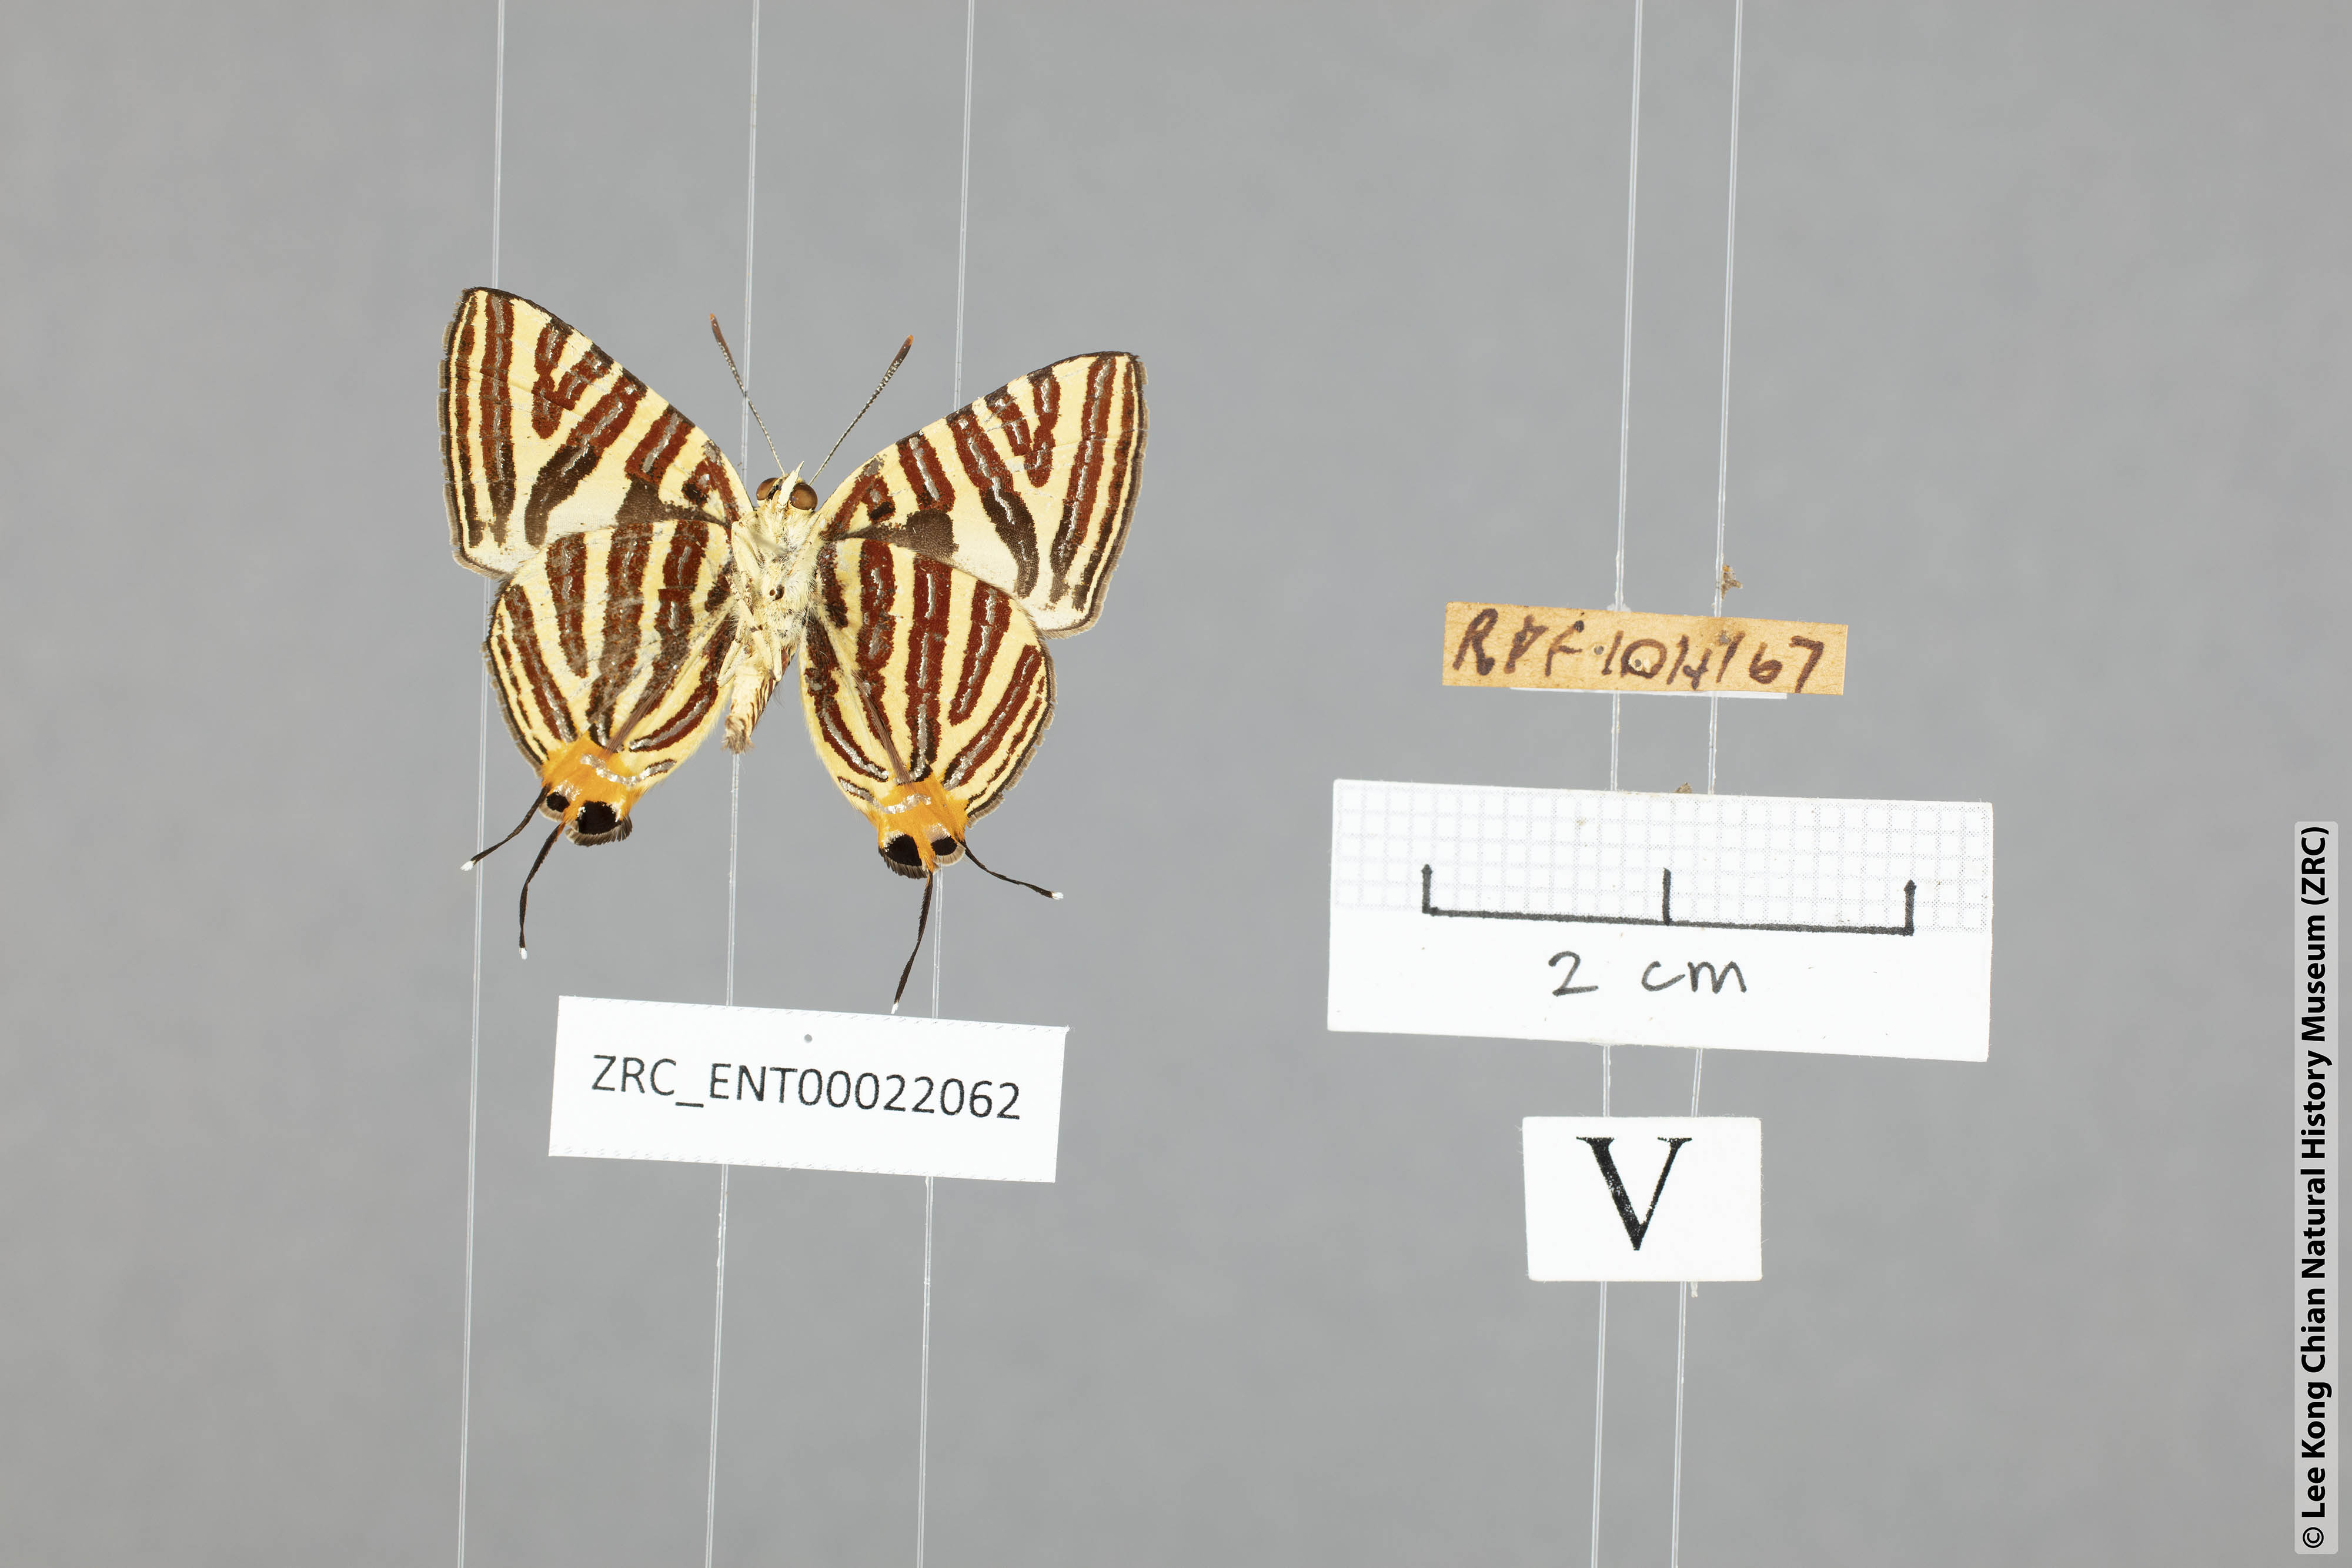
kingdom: Animalia
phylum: Arthropoda
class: Insecta
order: Lepidoptera
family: Lycaenidae
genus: Spindasis
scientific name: Spindasis lohita
